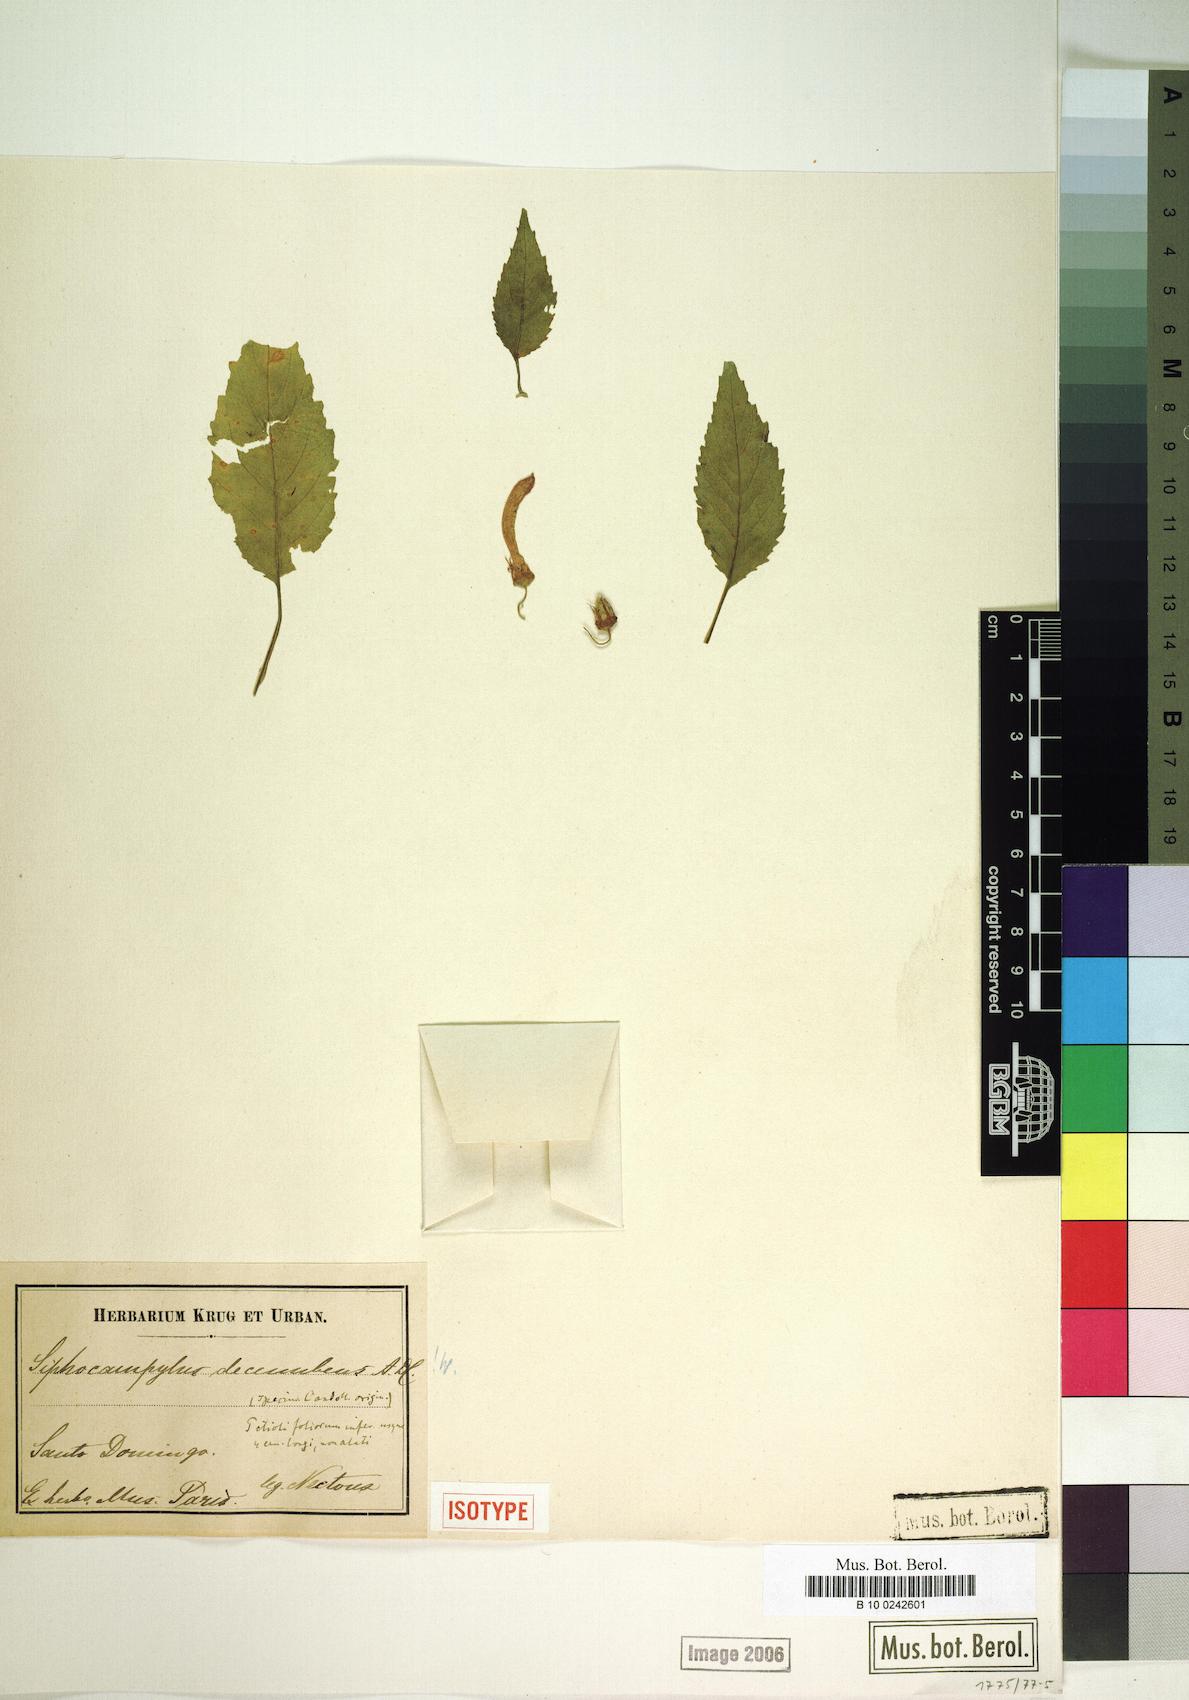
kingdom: Plantae
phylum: Tracheophyta
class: Magnoliopsida
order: Asterales
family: Campanulaceae
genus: Siphocampylus
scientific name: Siphocampylus decumbens
